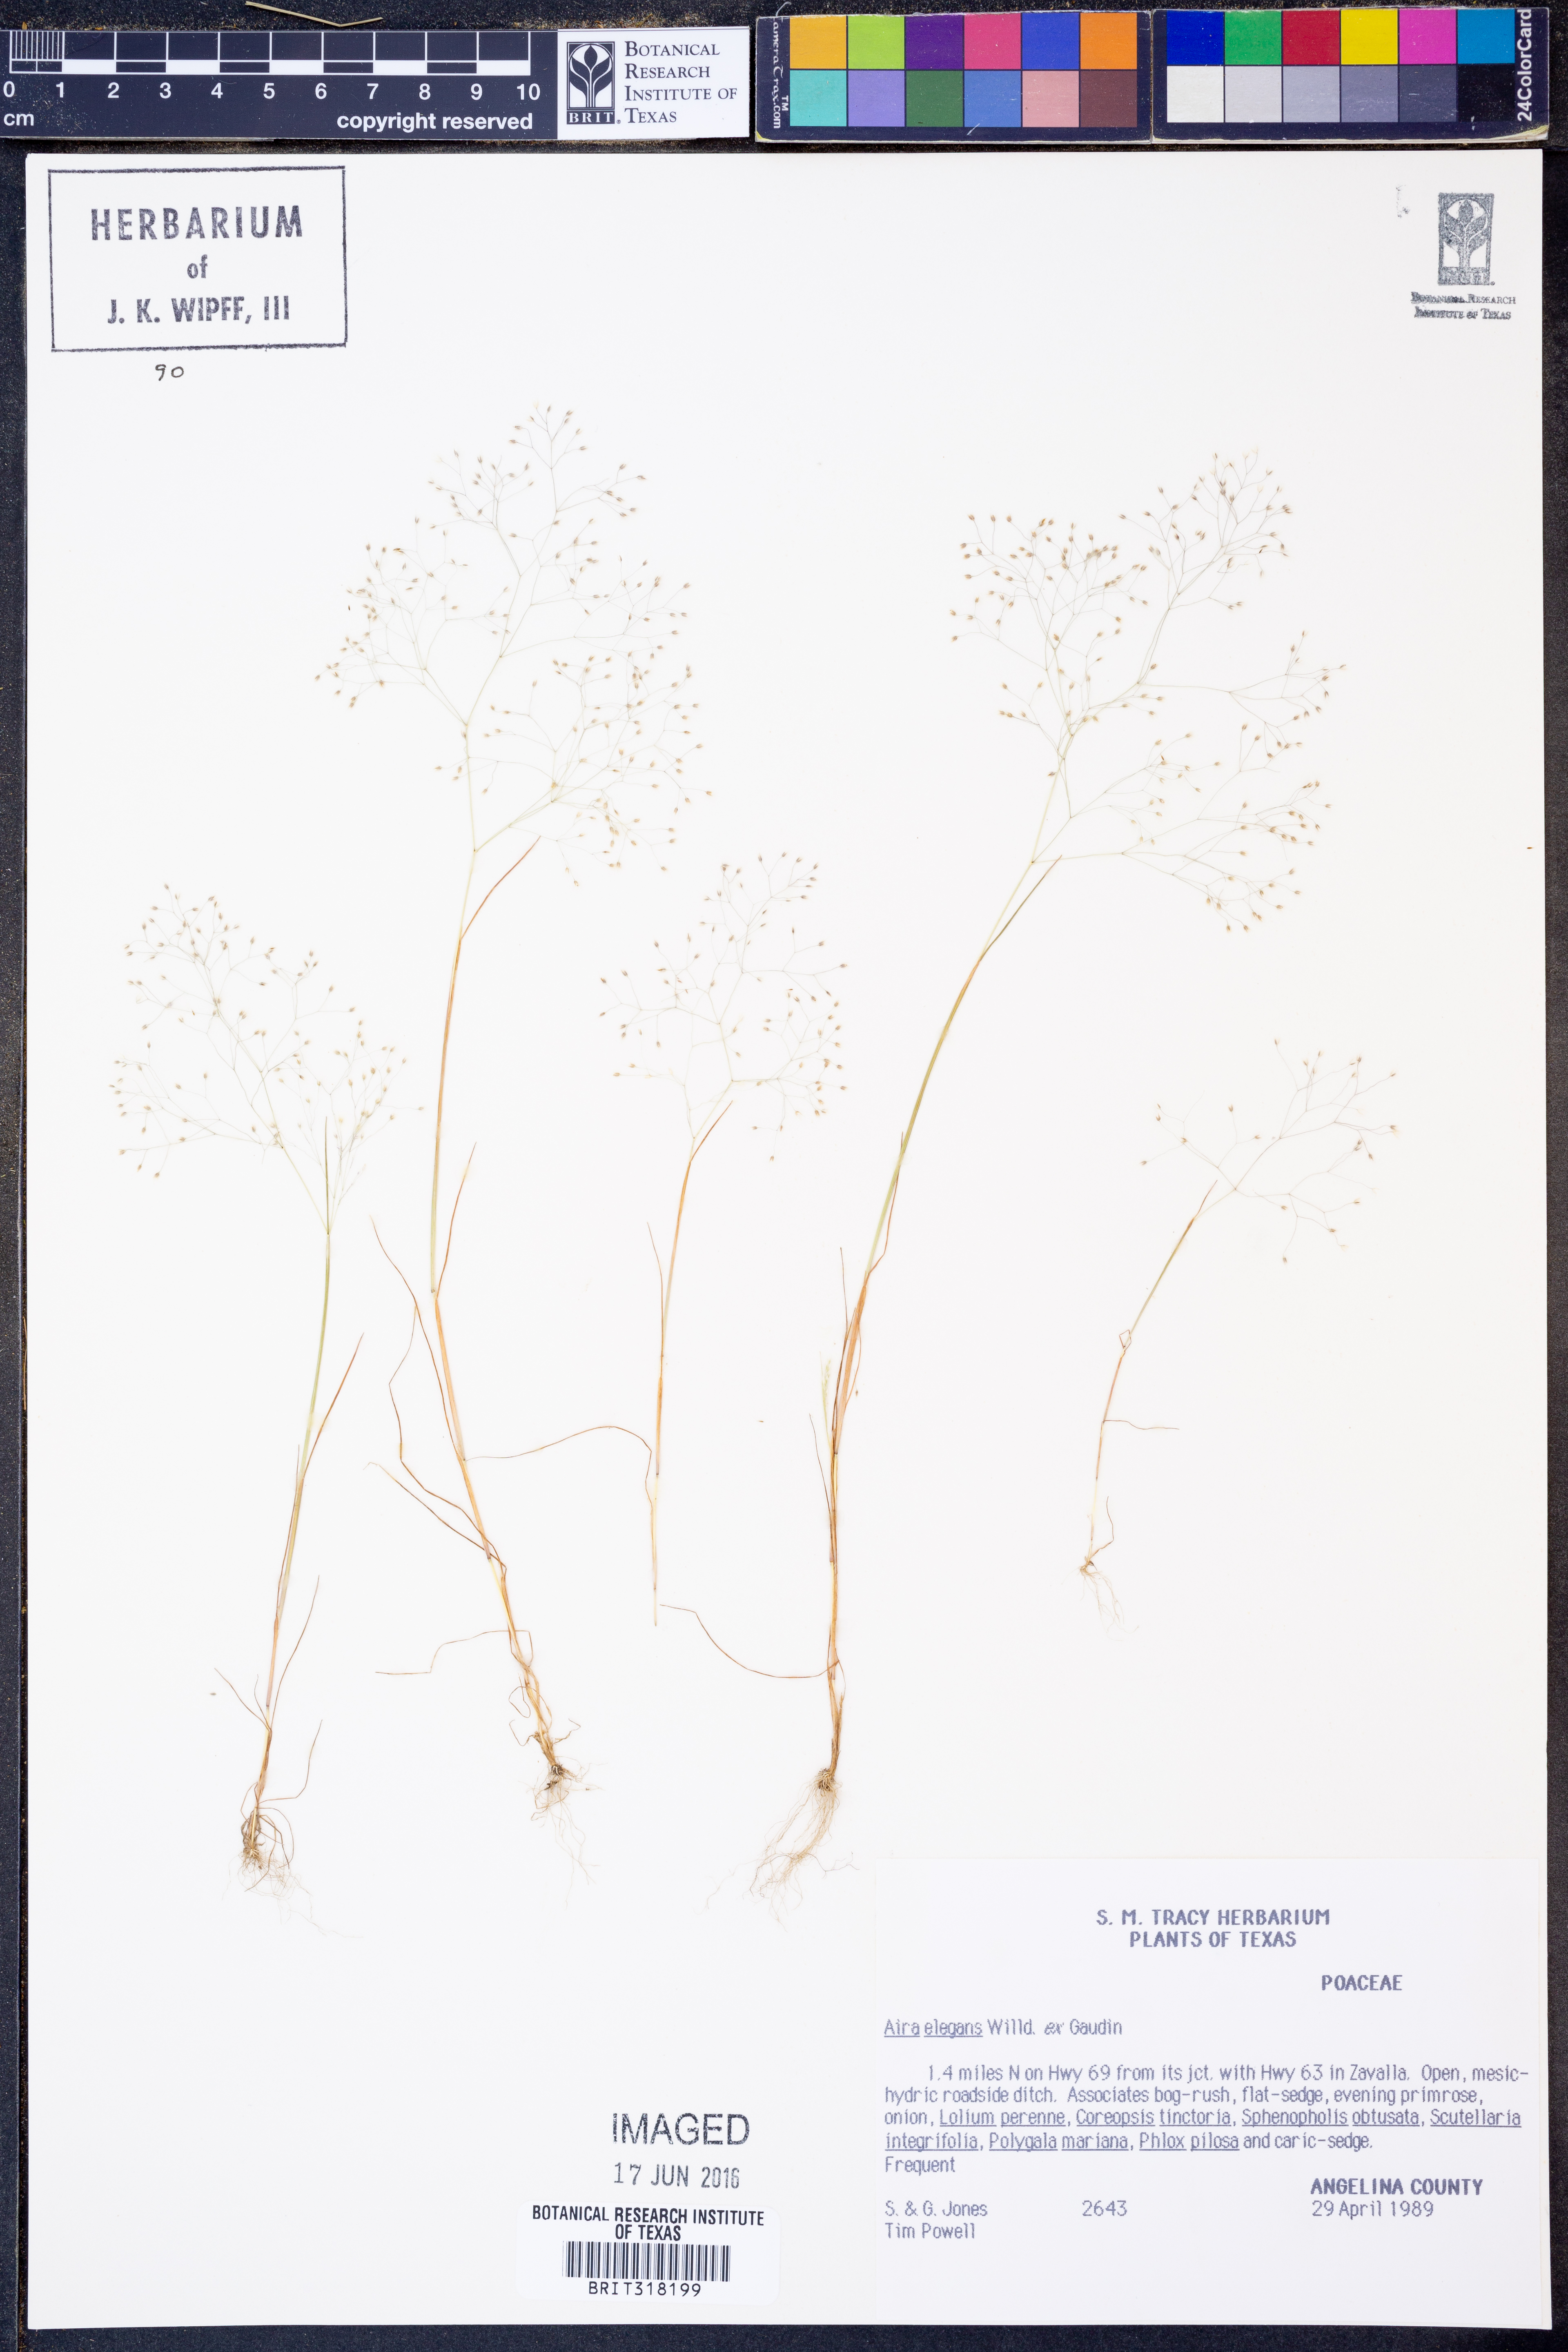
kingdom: Plantae
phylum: Tracheophyta
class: Liliopsida
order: Poales
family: Poaceae
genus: Aira
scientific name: Aira elegans
